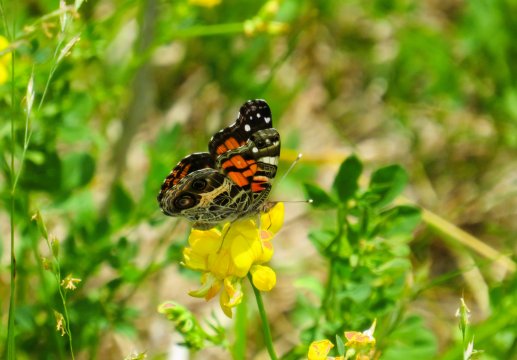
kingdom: Animalia
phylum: Arthropoda
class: Insecta
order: Lepidoptera
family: Nymphalidae
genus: Vanessa
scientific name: Vanessa virginiensis
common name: American Lady
